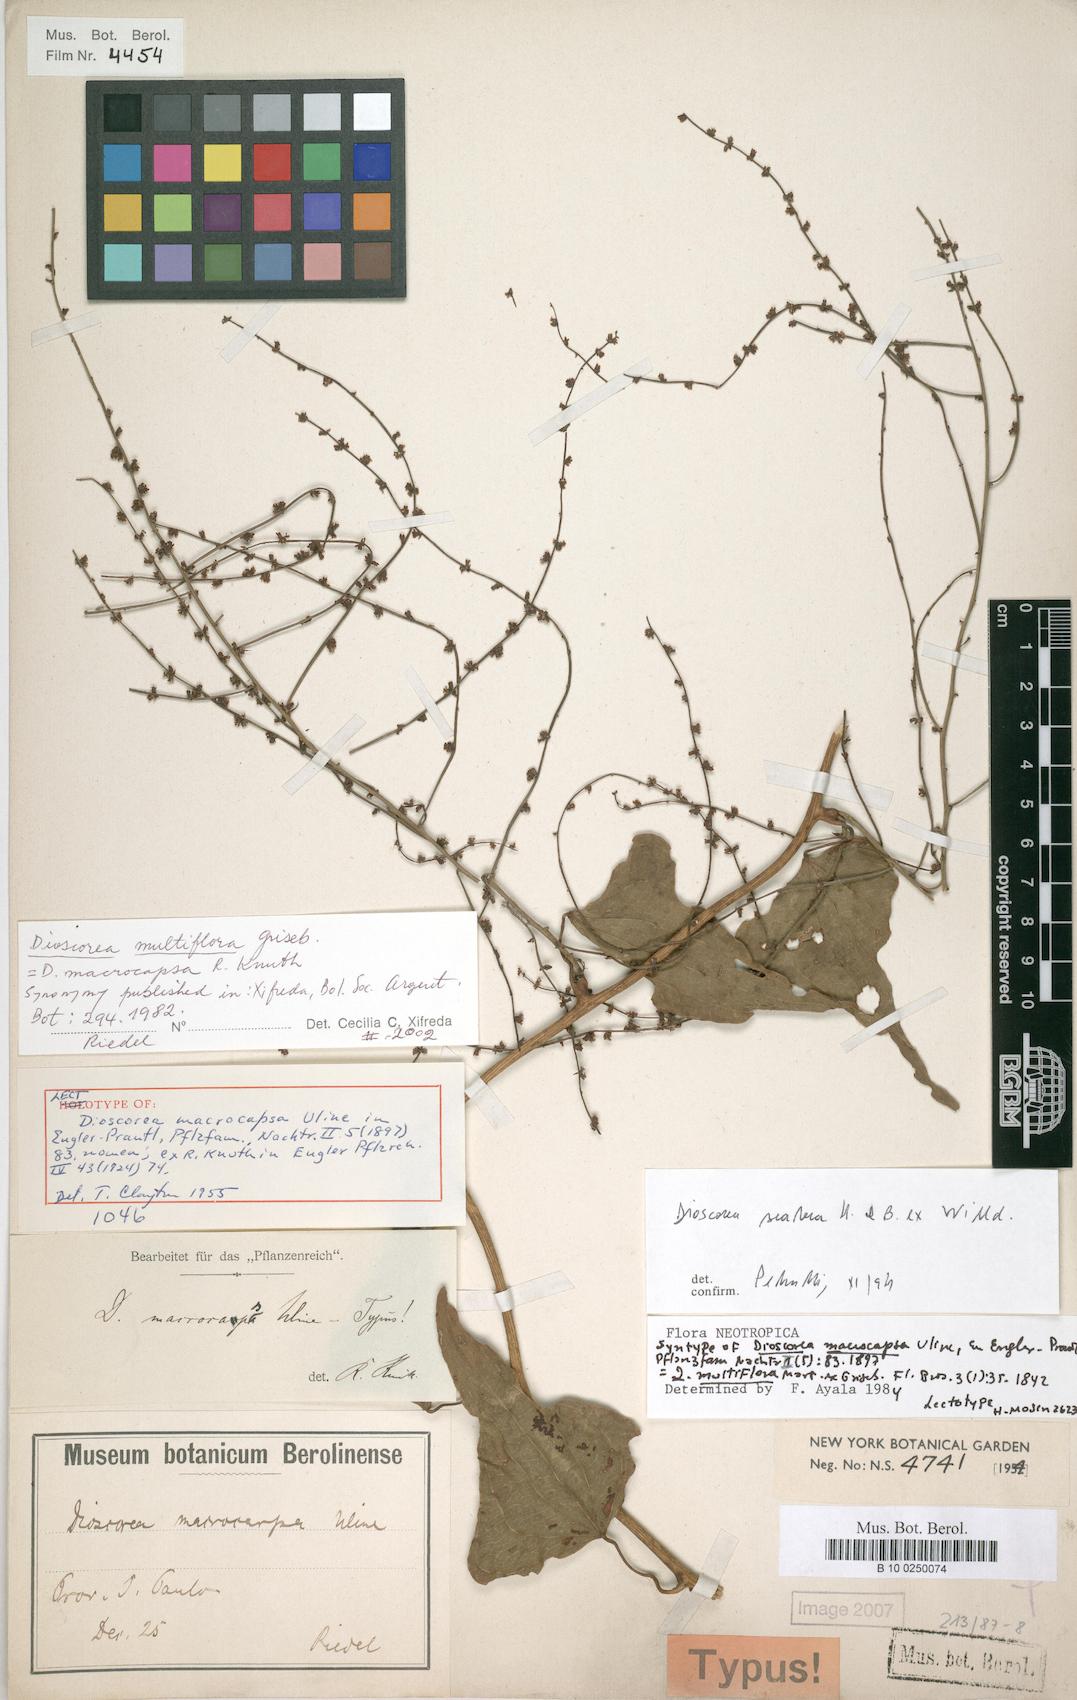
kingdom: Plantae
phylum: Tracheophyta
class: Liliopsida
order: Dioscoreales
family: Dioscoreaceae
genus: Dioscorea
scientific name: Dioscorea multiflora
